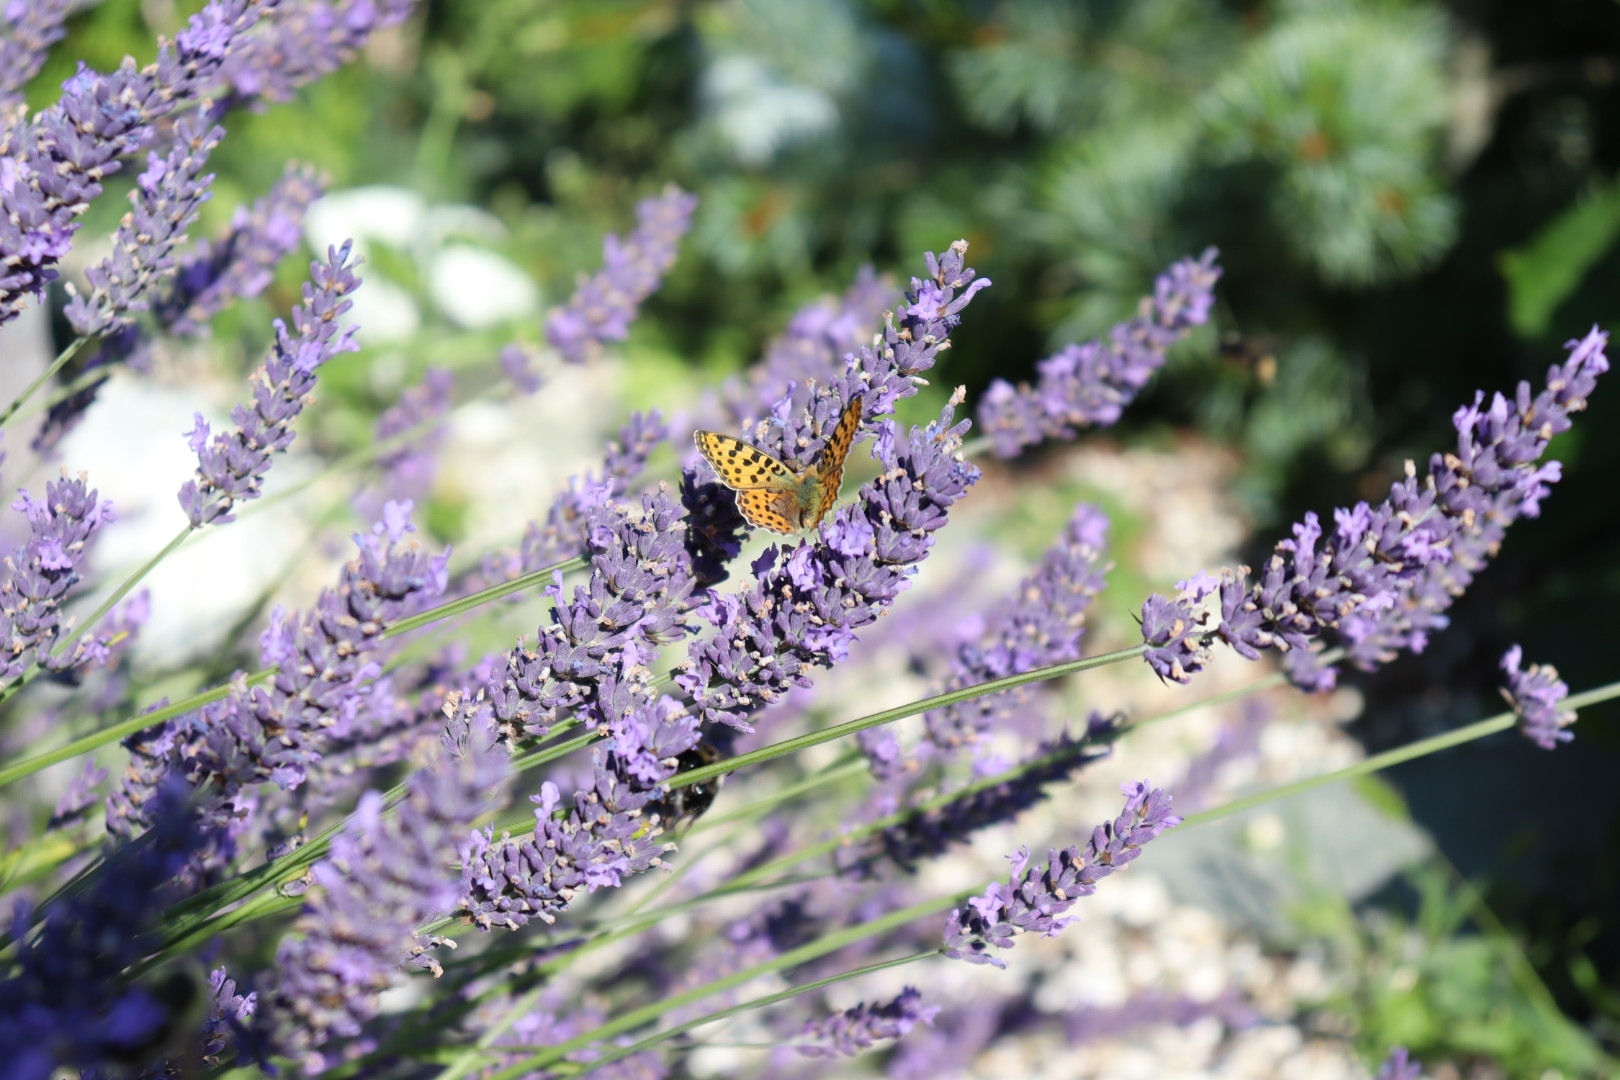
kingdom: Animalia
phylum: Arthropoda
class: Insecta
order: Lepidoptera
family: Nymphalidae
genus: Issoria
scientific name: Issoria lathonia
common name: Storplettet perlemorsommerfugl
